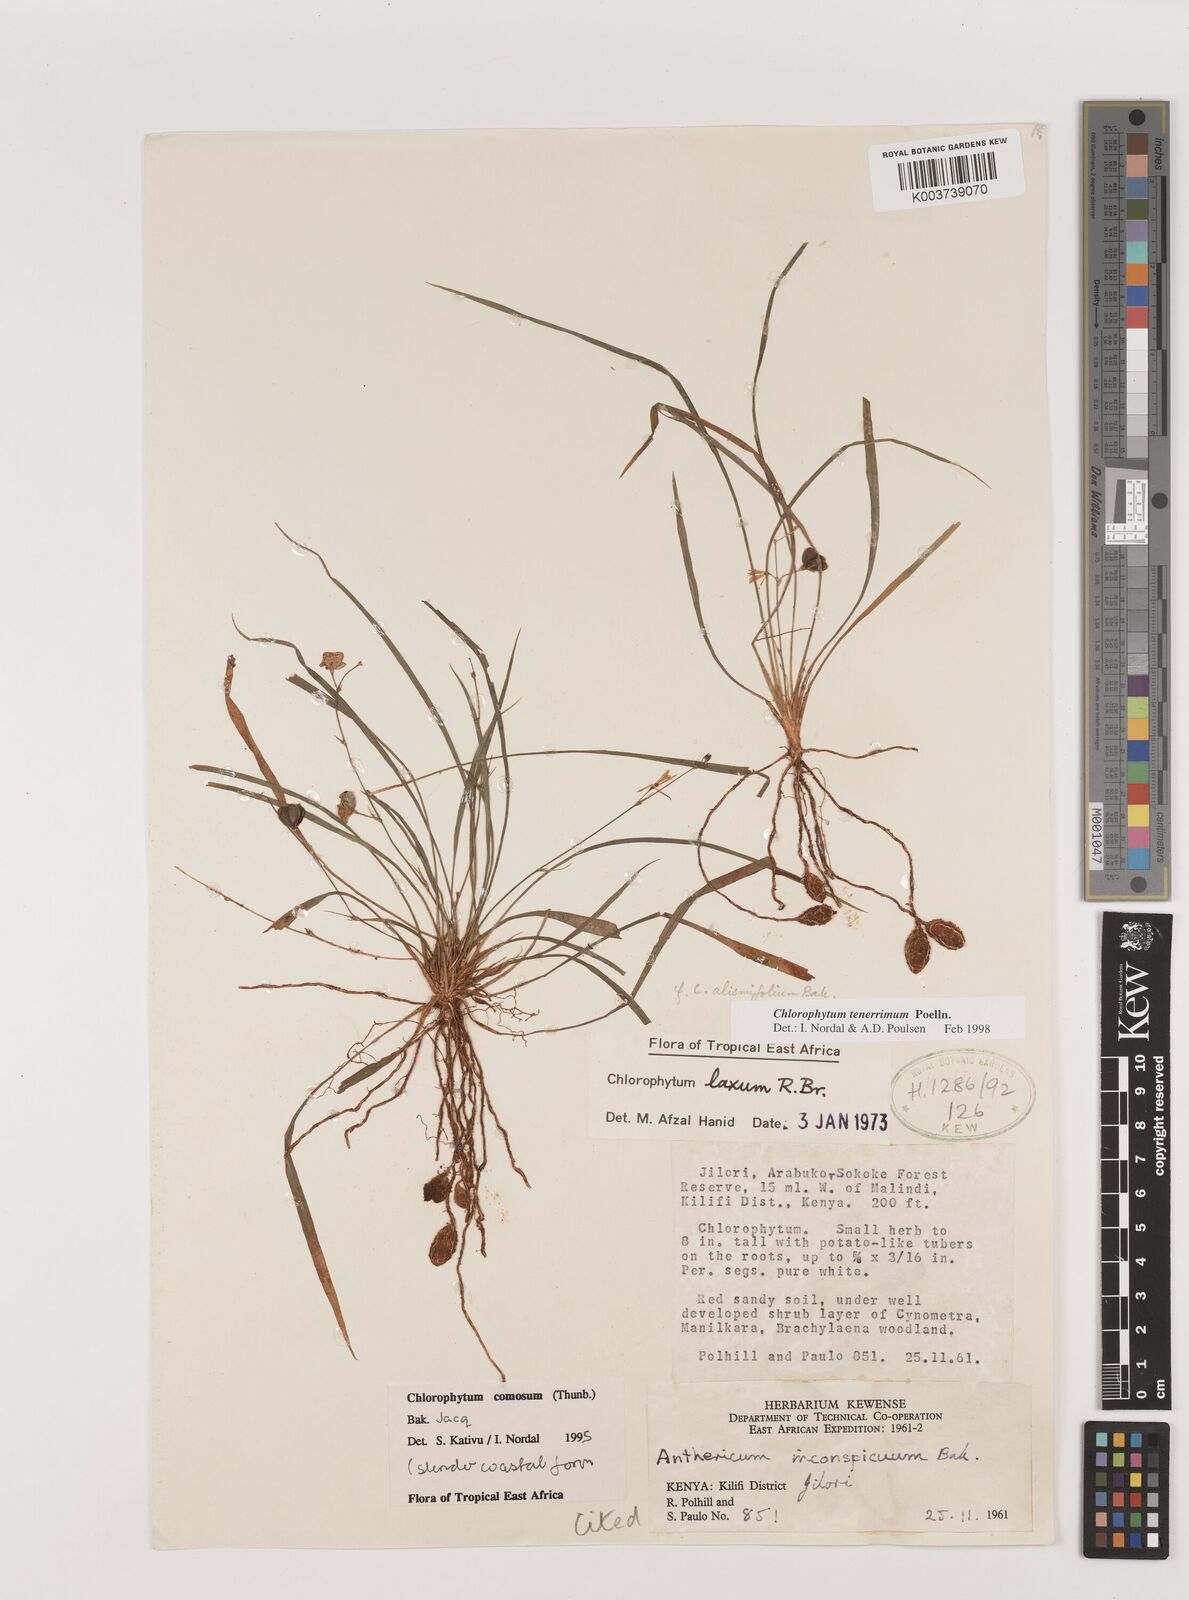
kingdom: Plantae
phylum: Tracheophyta
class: Liliopsida
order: Asparagales
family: Asparagaceae
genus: Chlorophytum
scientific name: Chlorophytum tenerrimum
